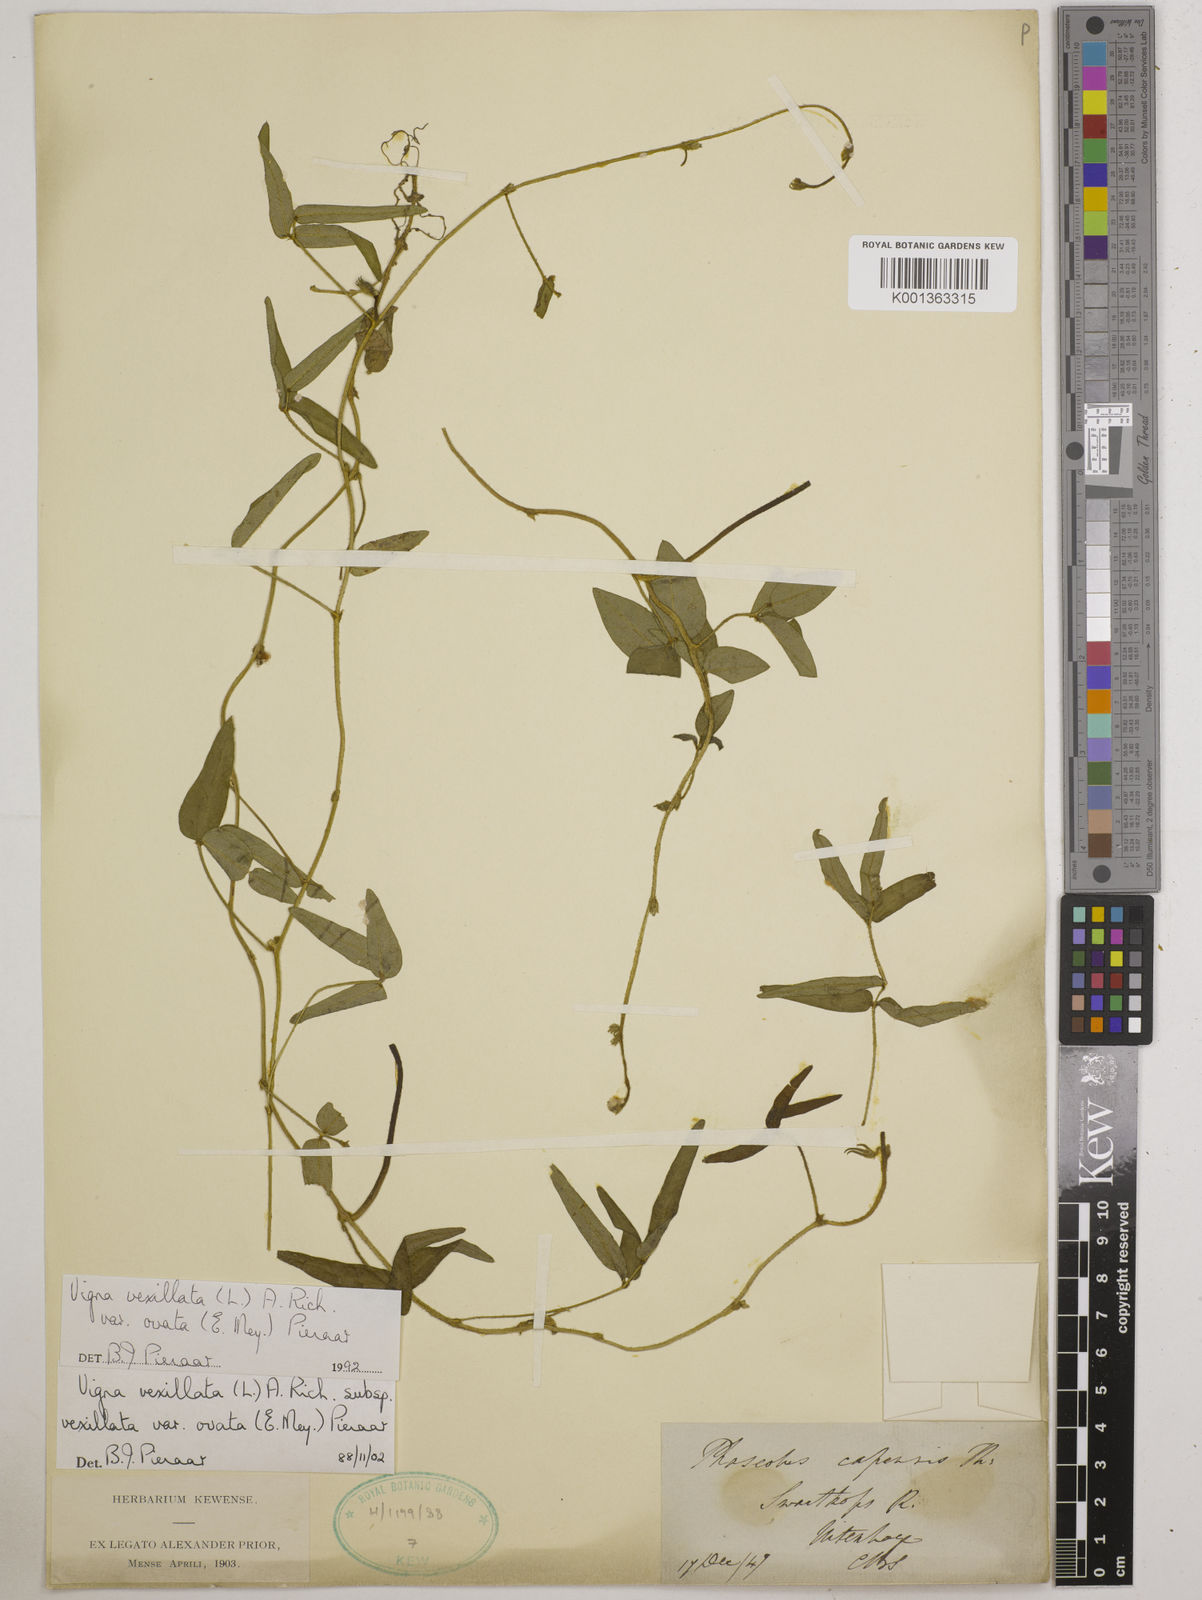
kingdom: Plantae
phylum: Tracheophyta
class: Magnoliopsida
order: Fabales
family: Fabaceae
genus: Vigna
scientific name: Vigna
